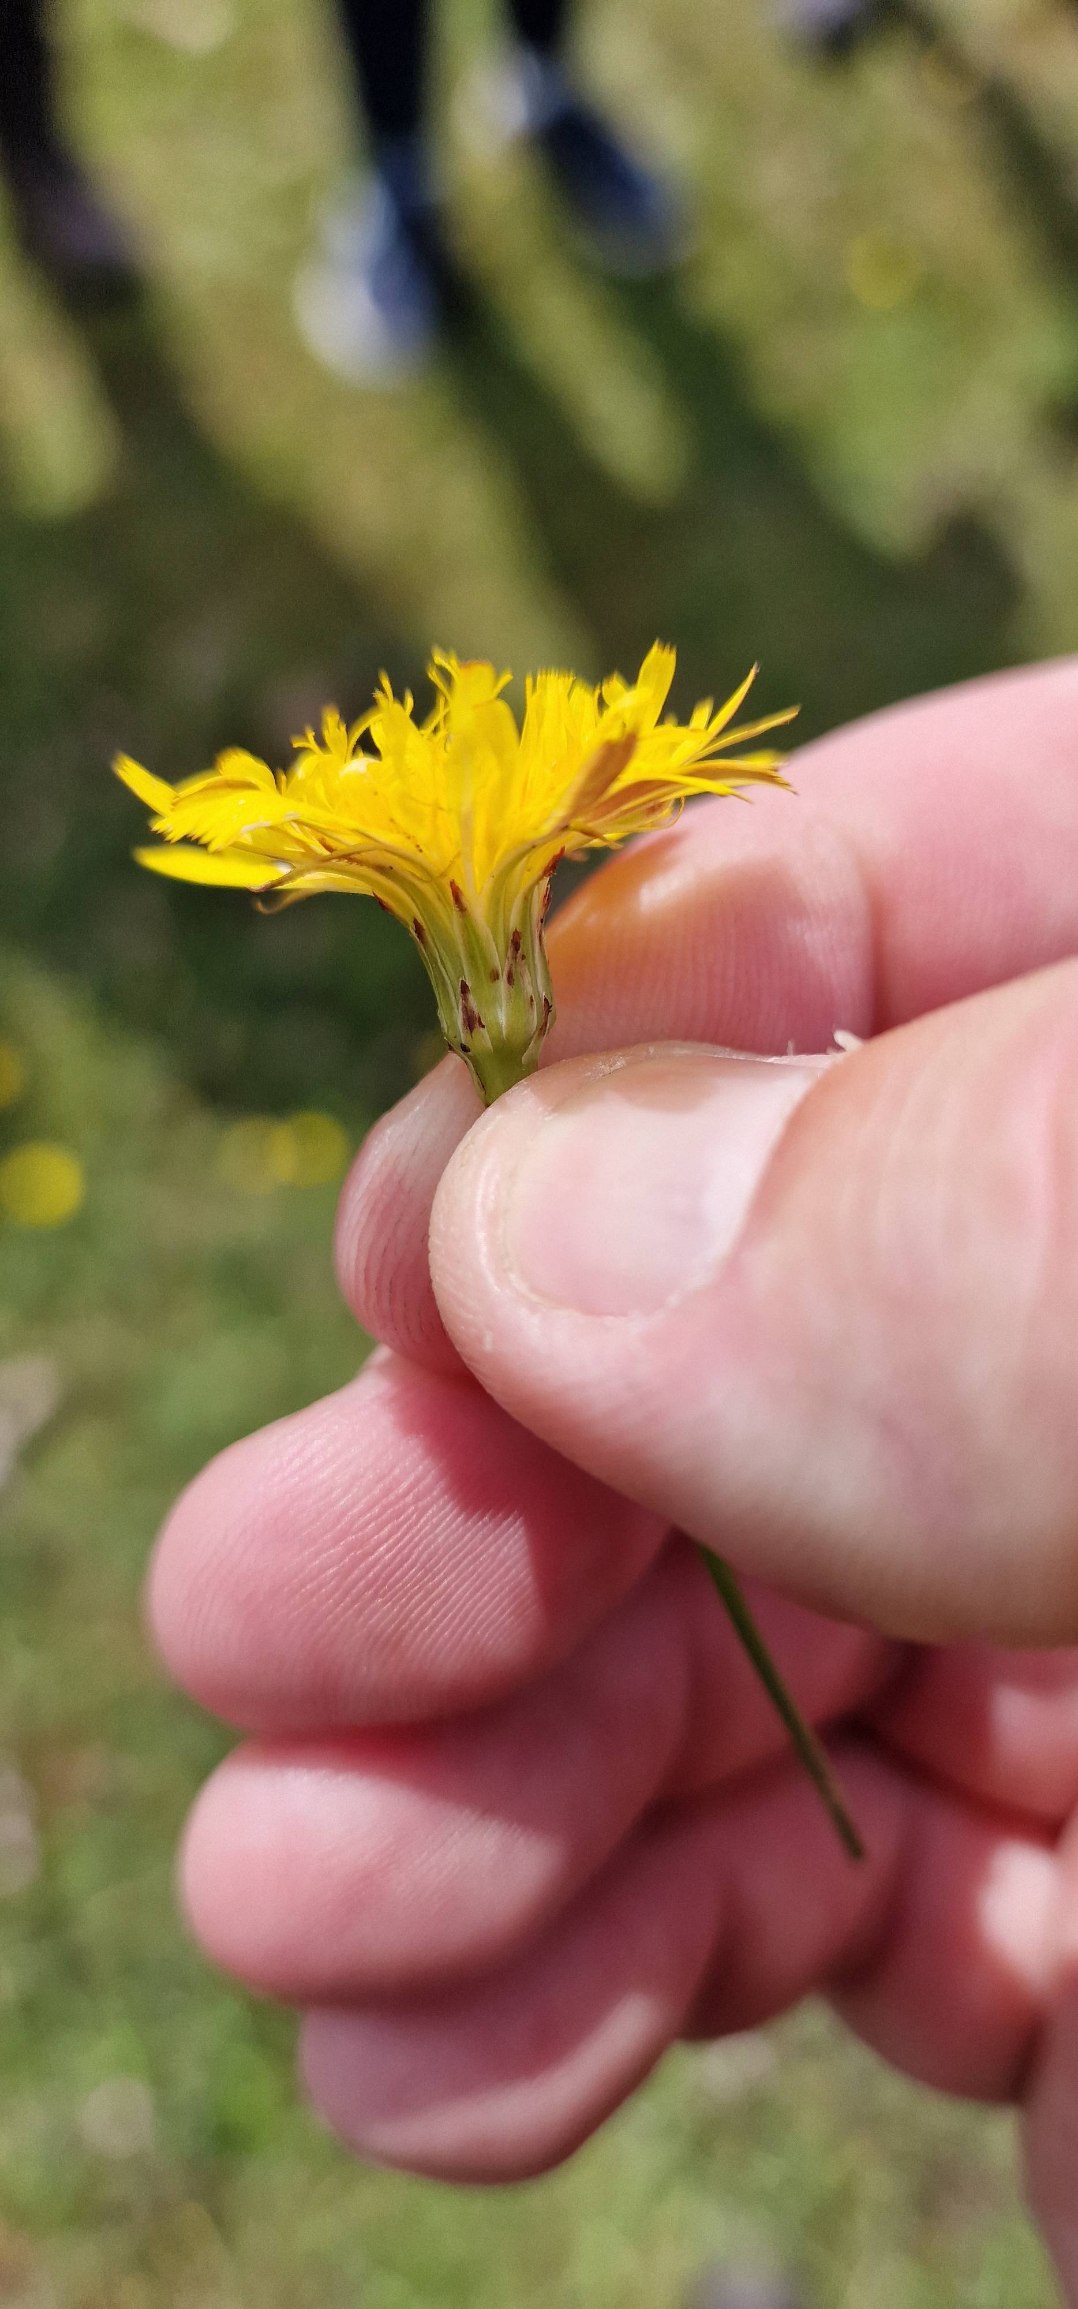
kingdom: Plantae
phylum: Tracheophyta
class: Magnoliopsida
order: Asterales
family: Asteraceae
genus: Hypochaeris
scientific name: Hypochaeris radicata
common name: Almindelig kongepen
